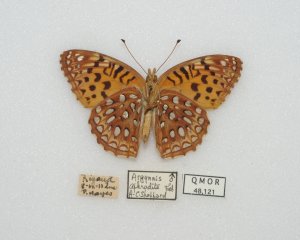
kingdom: Animalia
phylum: Arthropoda
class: Insecta
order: Lepidoptera
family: Nymphalidae
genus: Speyeria
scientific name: Speyeria aphrodite
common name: Aphrodite Fritillary
